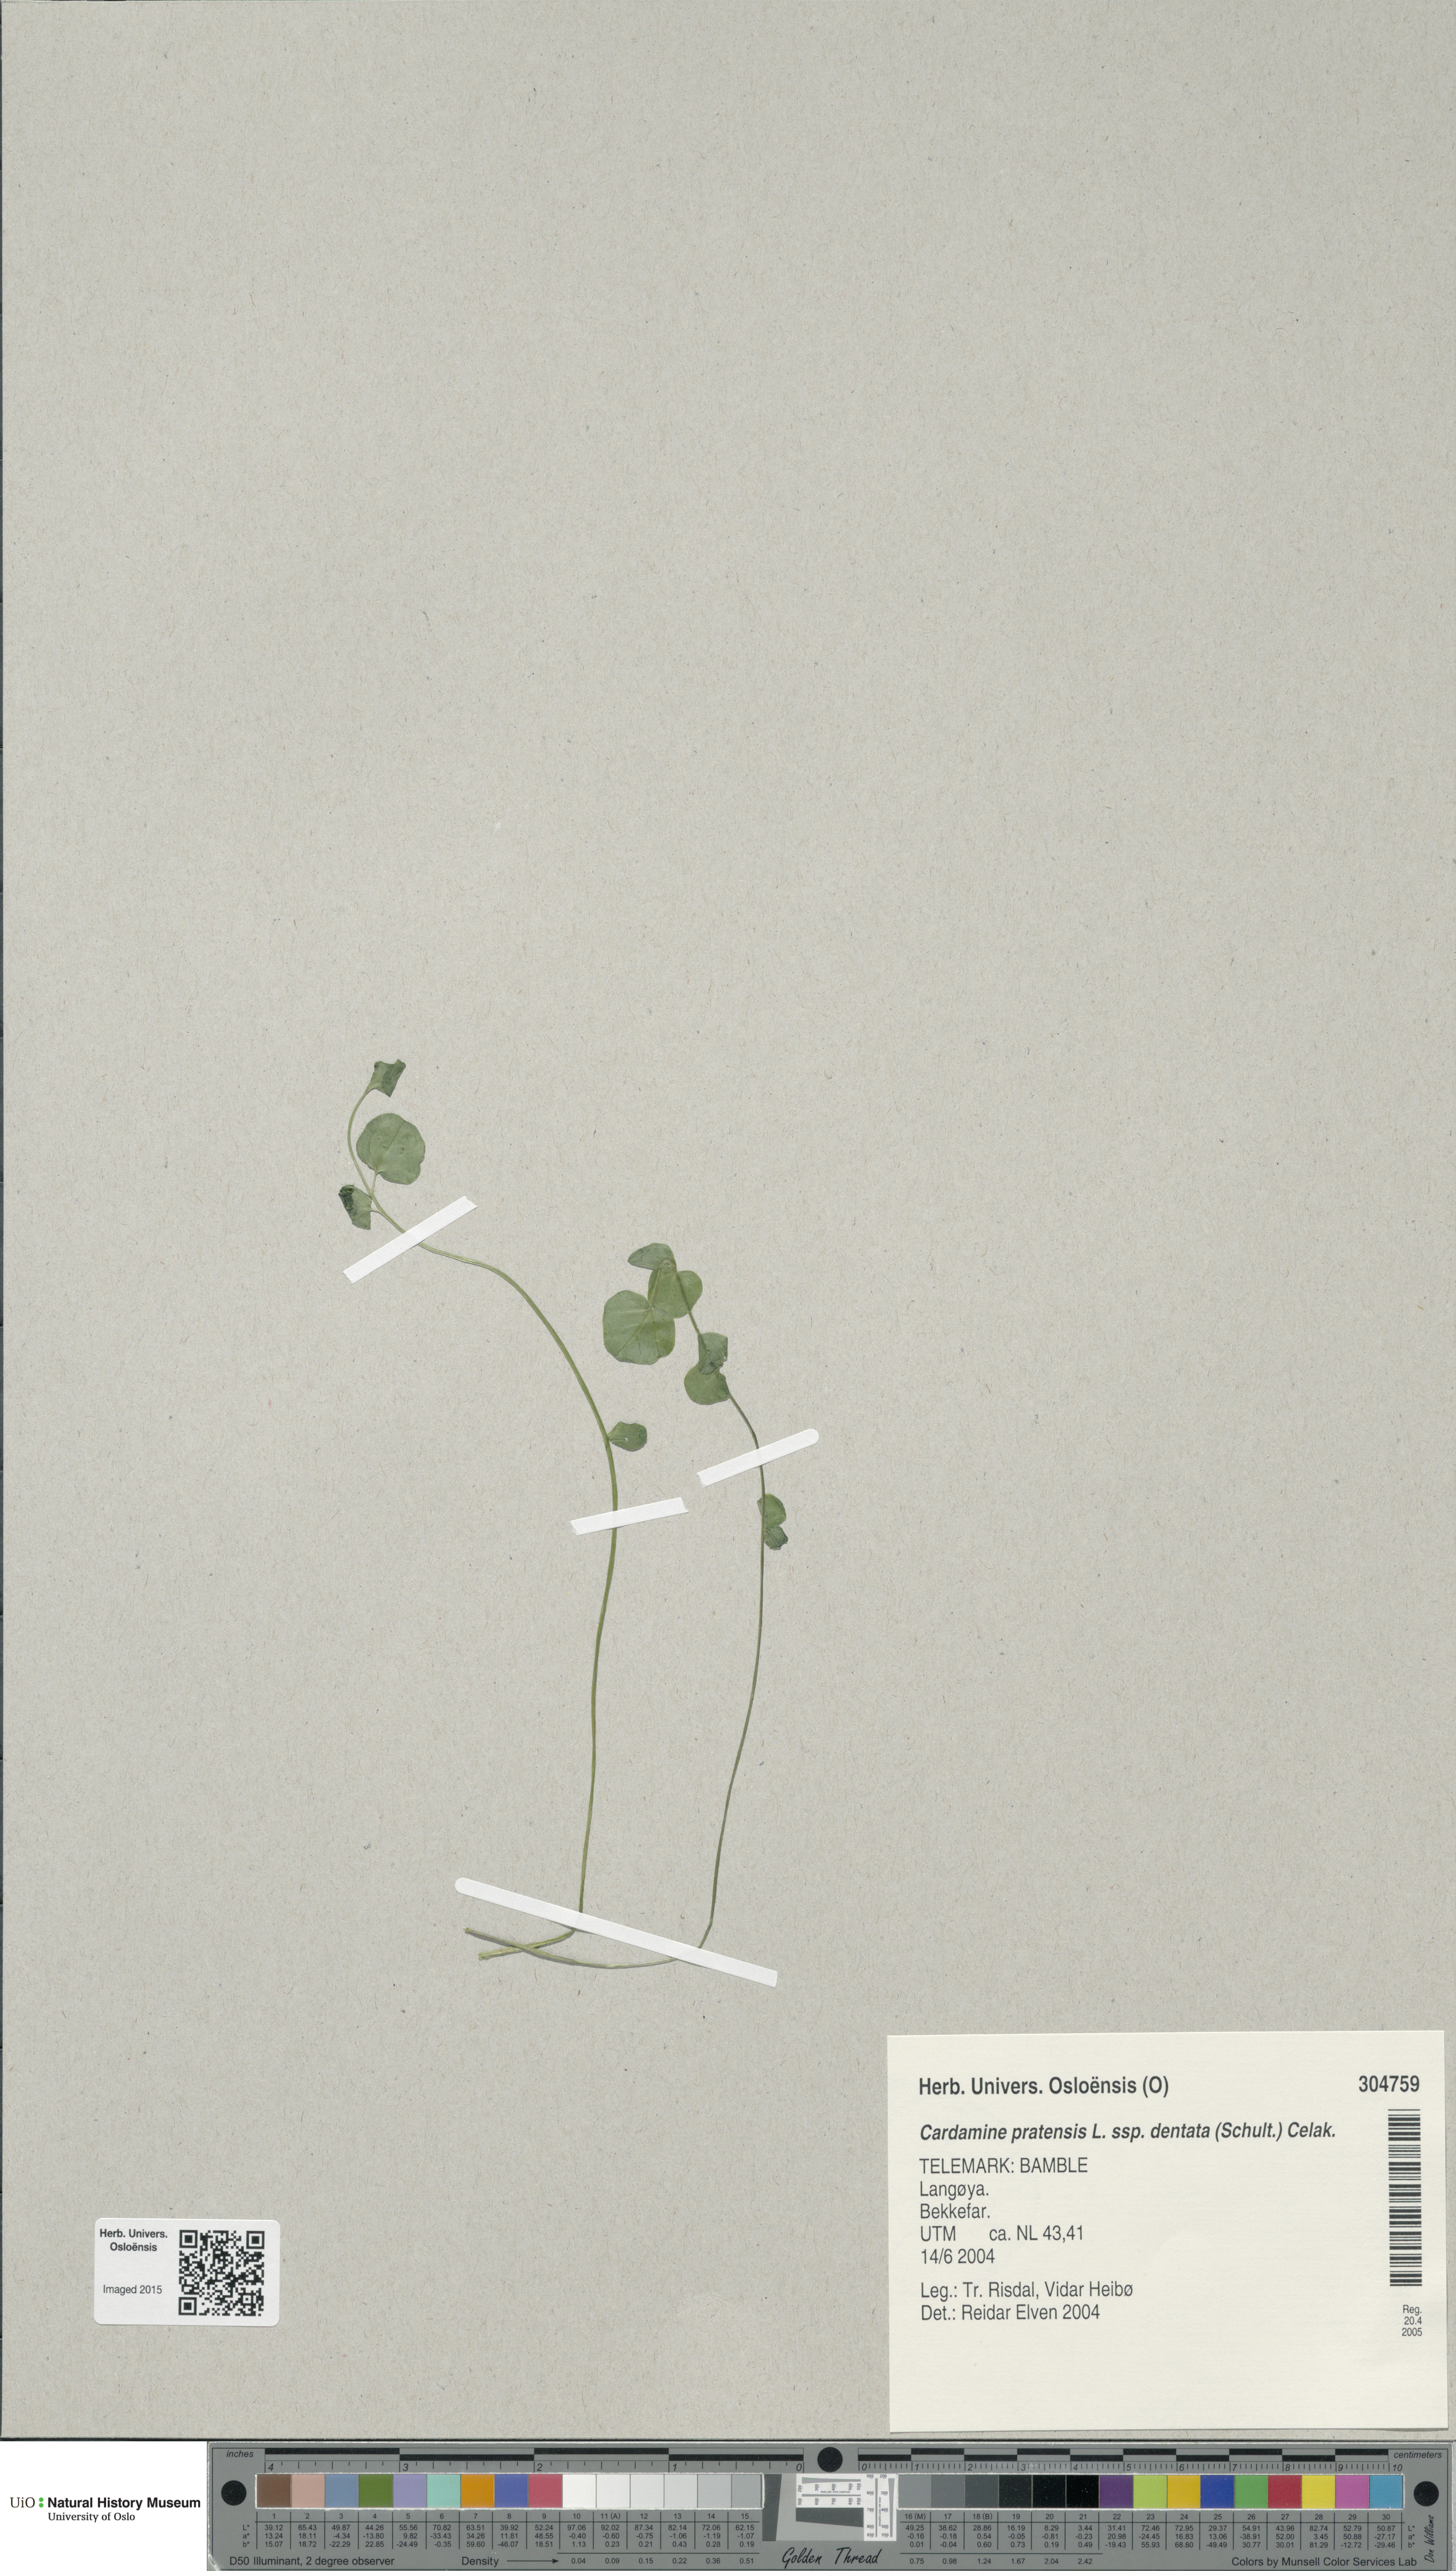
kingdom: Plantae
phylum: Tracheophyta
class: Magnoliopsida
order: Brassicales
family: Brassicaceae
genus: Cardamine
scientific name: Cardamine dentata
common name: Toothed bittercress
